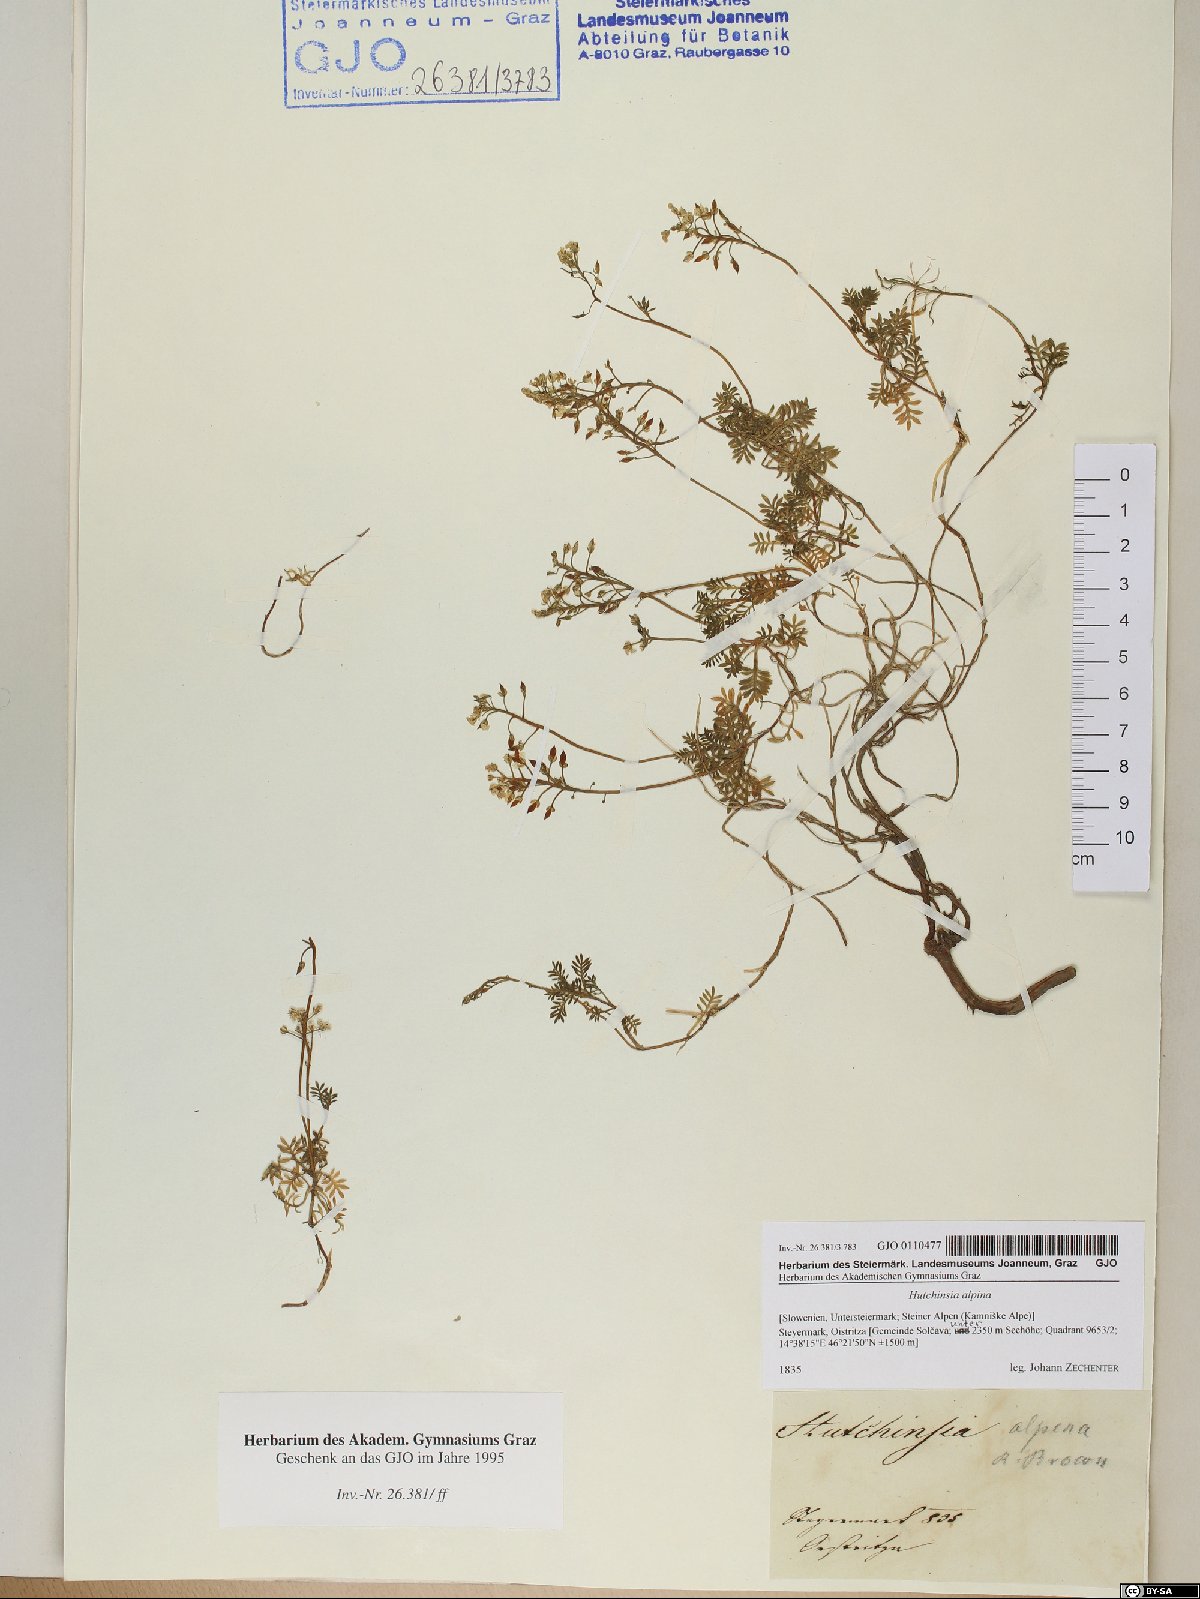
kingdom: Plantae
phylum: Tracheophyta
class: Magnoliopsida
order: Brassicales
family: Brassicaceae
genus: Hornungia
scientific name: Hornungia alpina
